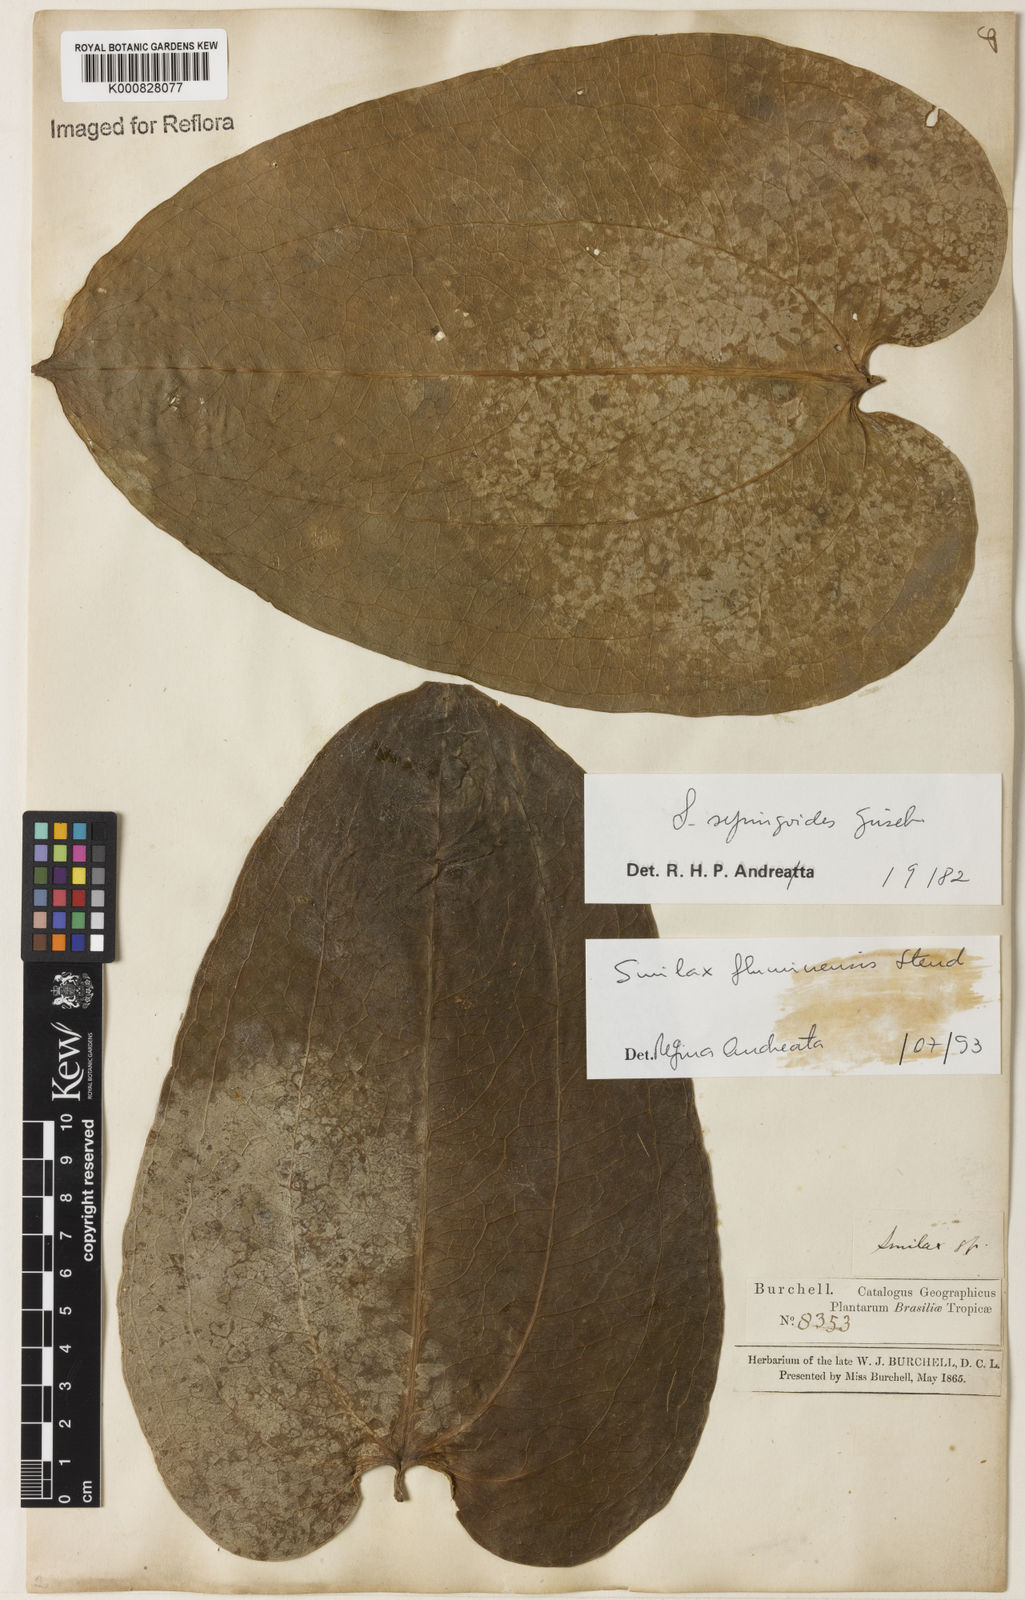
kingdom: Plantae
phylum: Tracheophyta
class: Liliopsida
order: Liliales
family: Smilacaceae
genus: Smilax
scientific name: Smilax fluminensis
